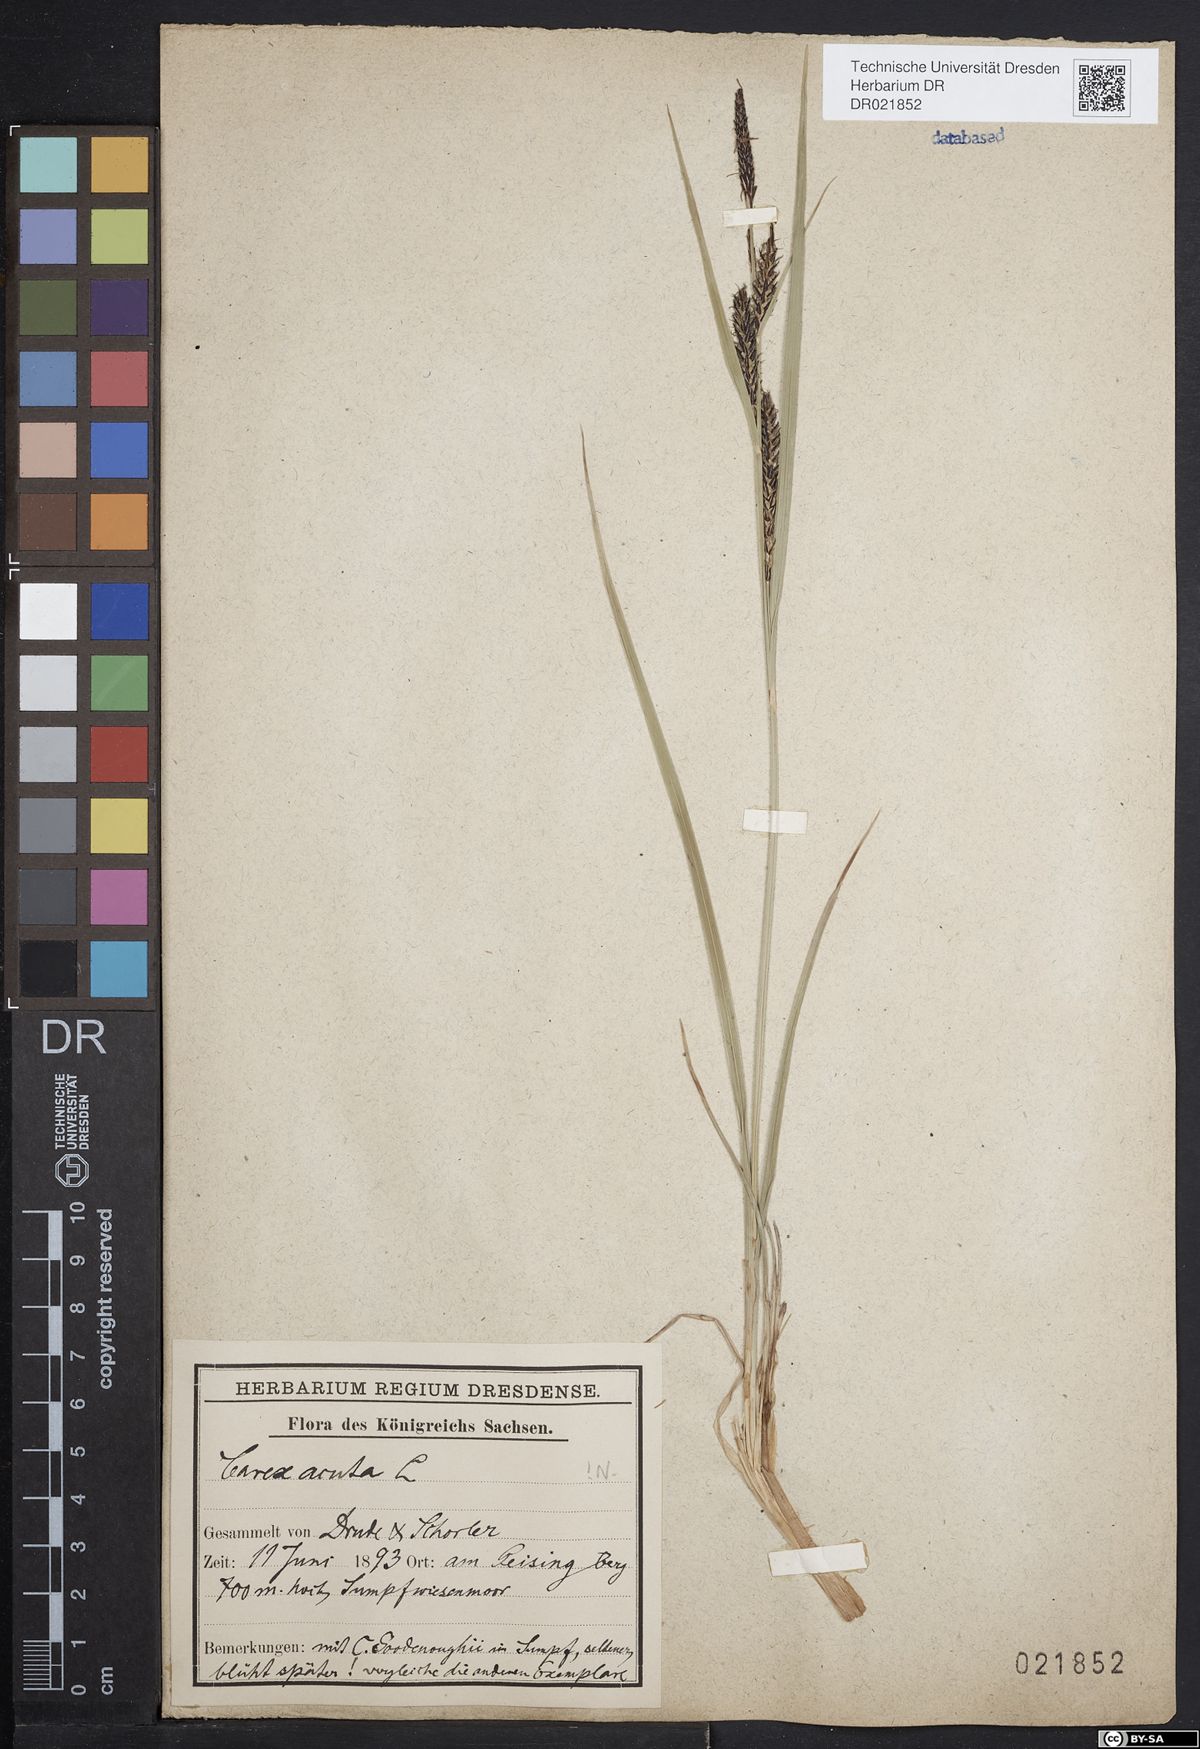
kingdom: Plantae
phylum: Tracheophyta
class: Liliopsida
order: Poales
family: Cyperaceae
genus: Carex
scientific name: Carex acuta
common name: Slender tufted-sedge
